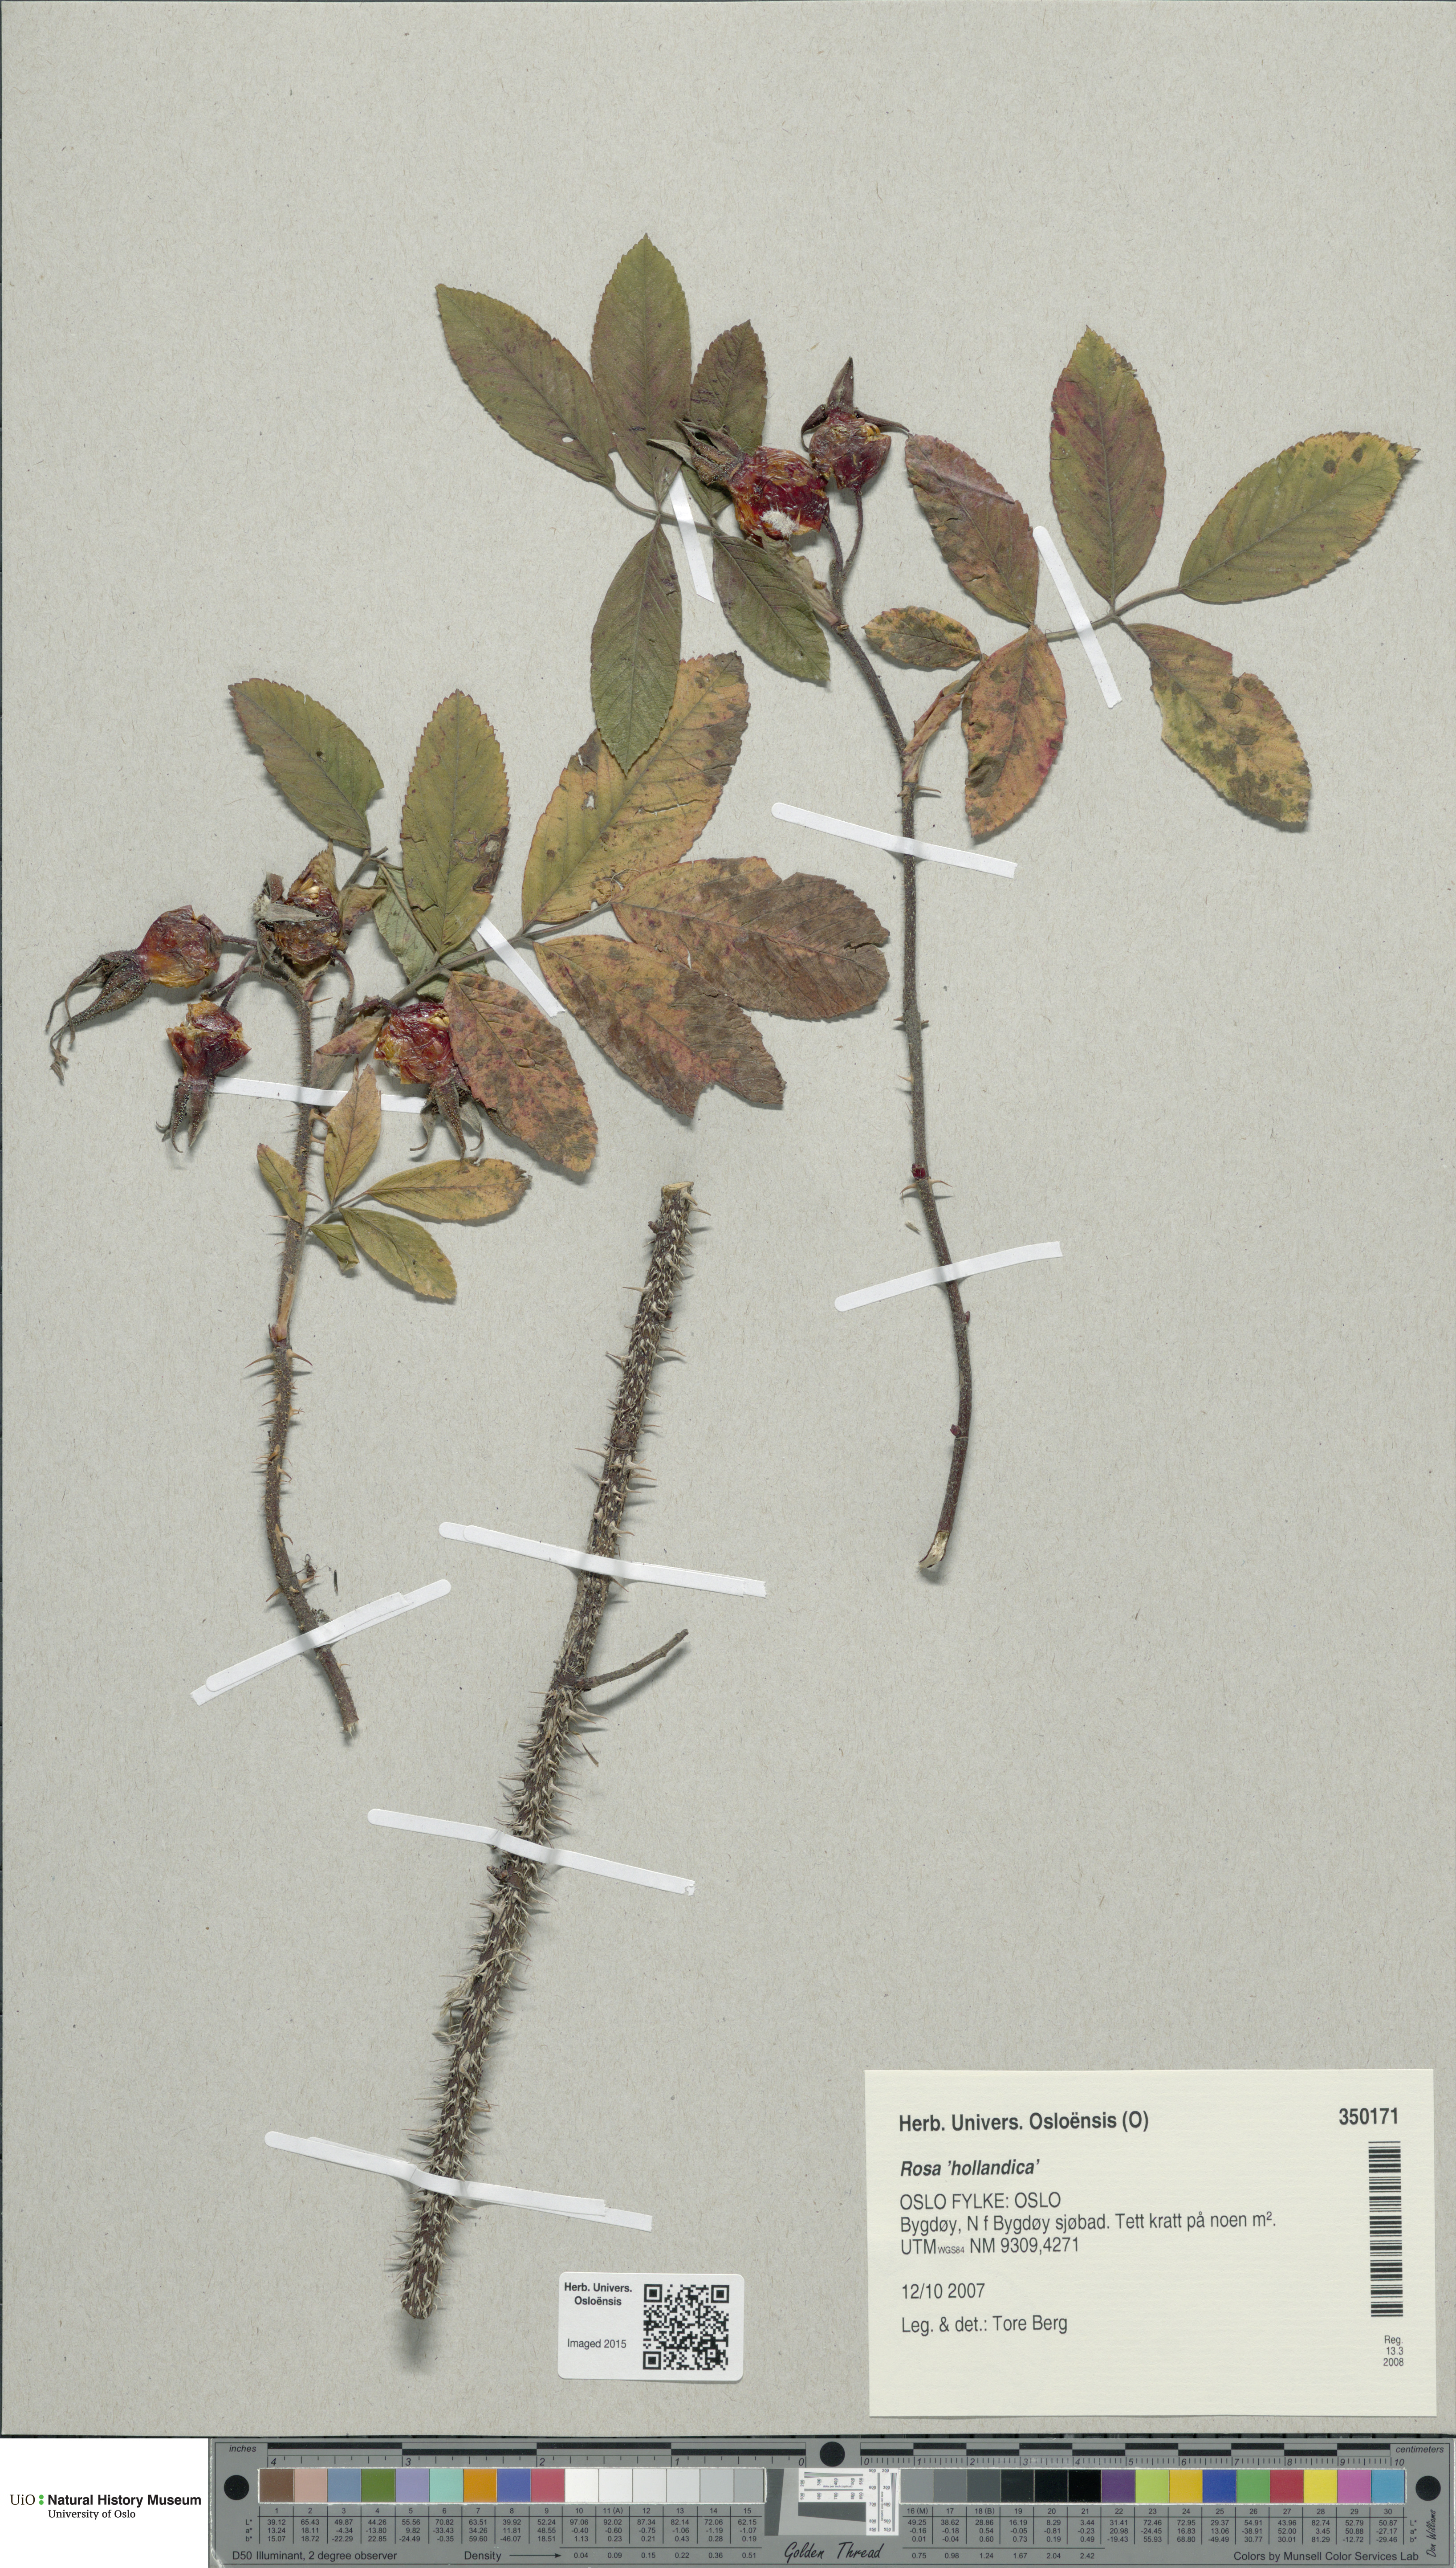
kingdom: Plantae
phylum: Tracheophyta
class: Magnoliopsida
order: Rosales
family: Rosaceae
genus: Rosa
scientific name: Rosa hollandica
